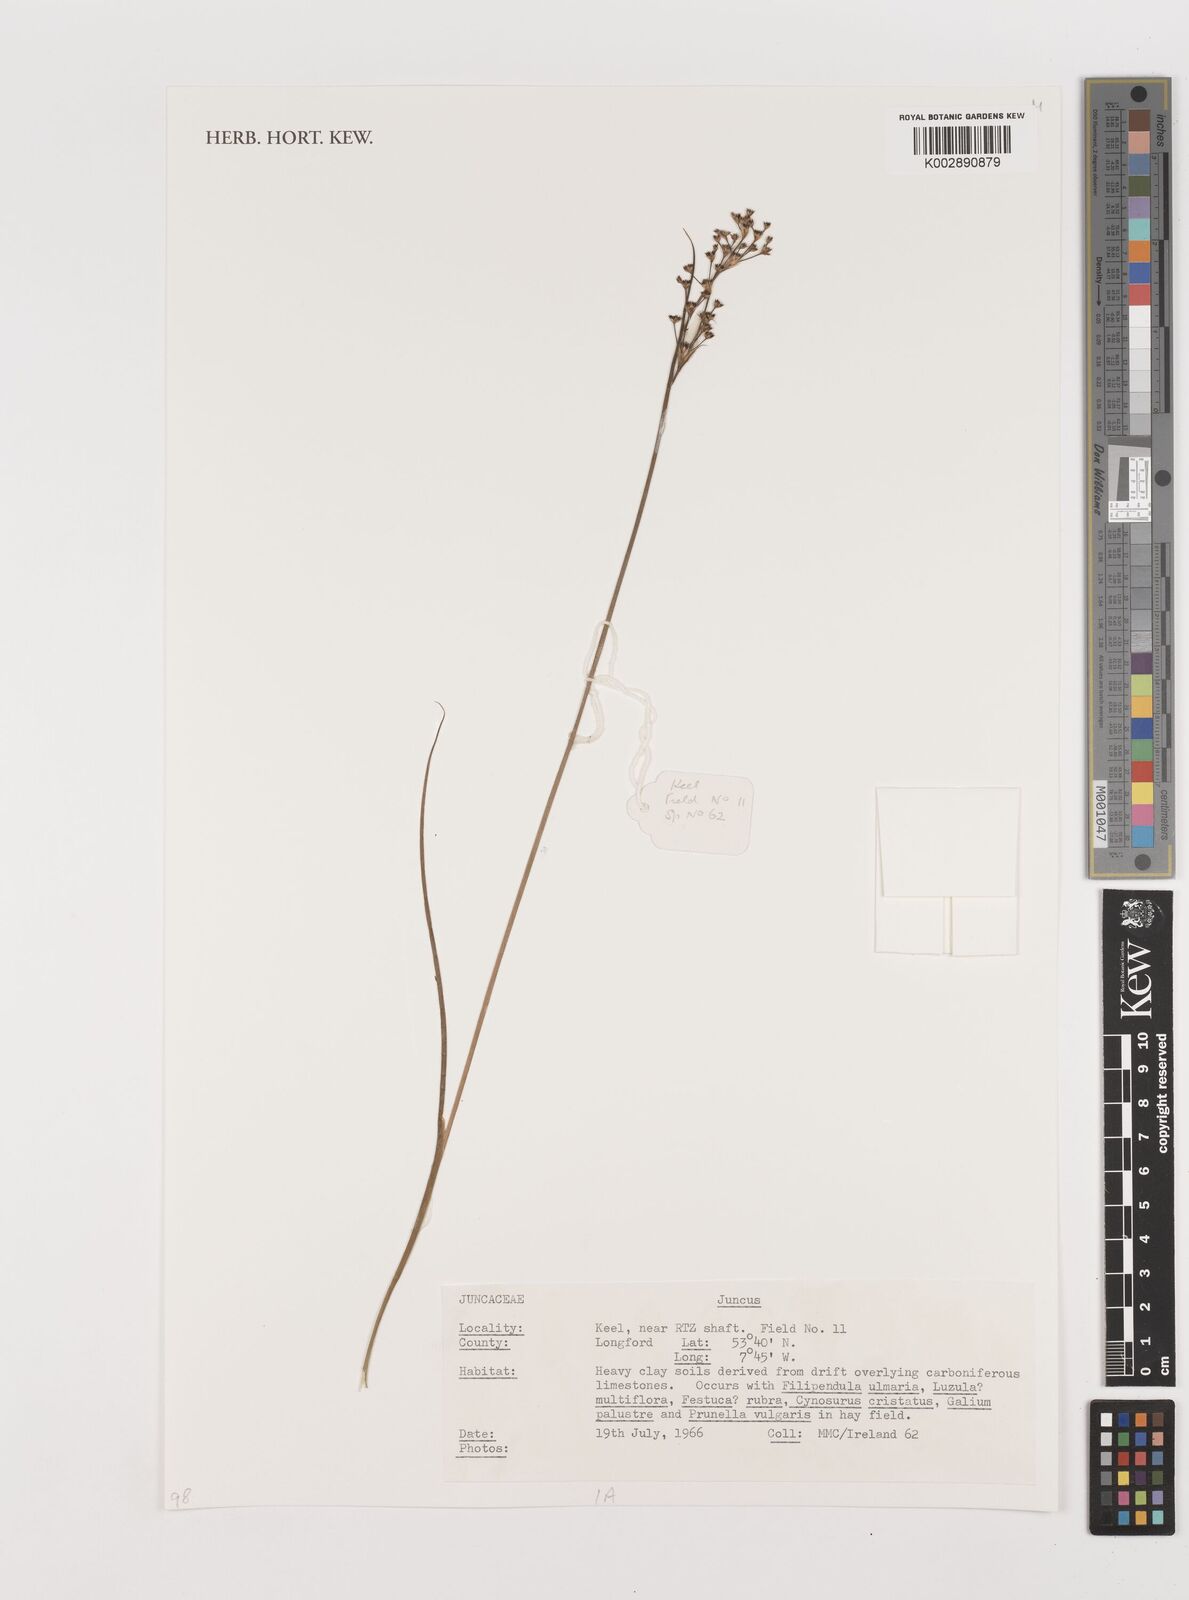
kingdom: Plantae
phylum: Tracheophyta
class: Liliopsida
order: Poales
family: Juncaceae
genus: Juncus
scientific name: Juncus
